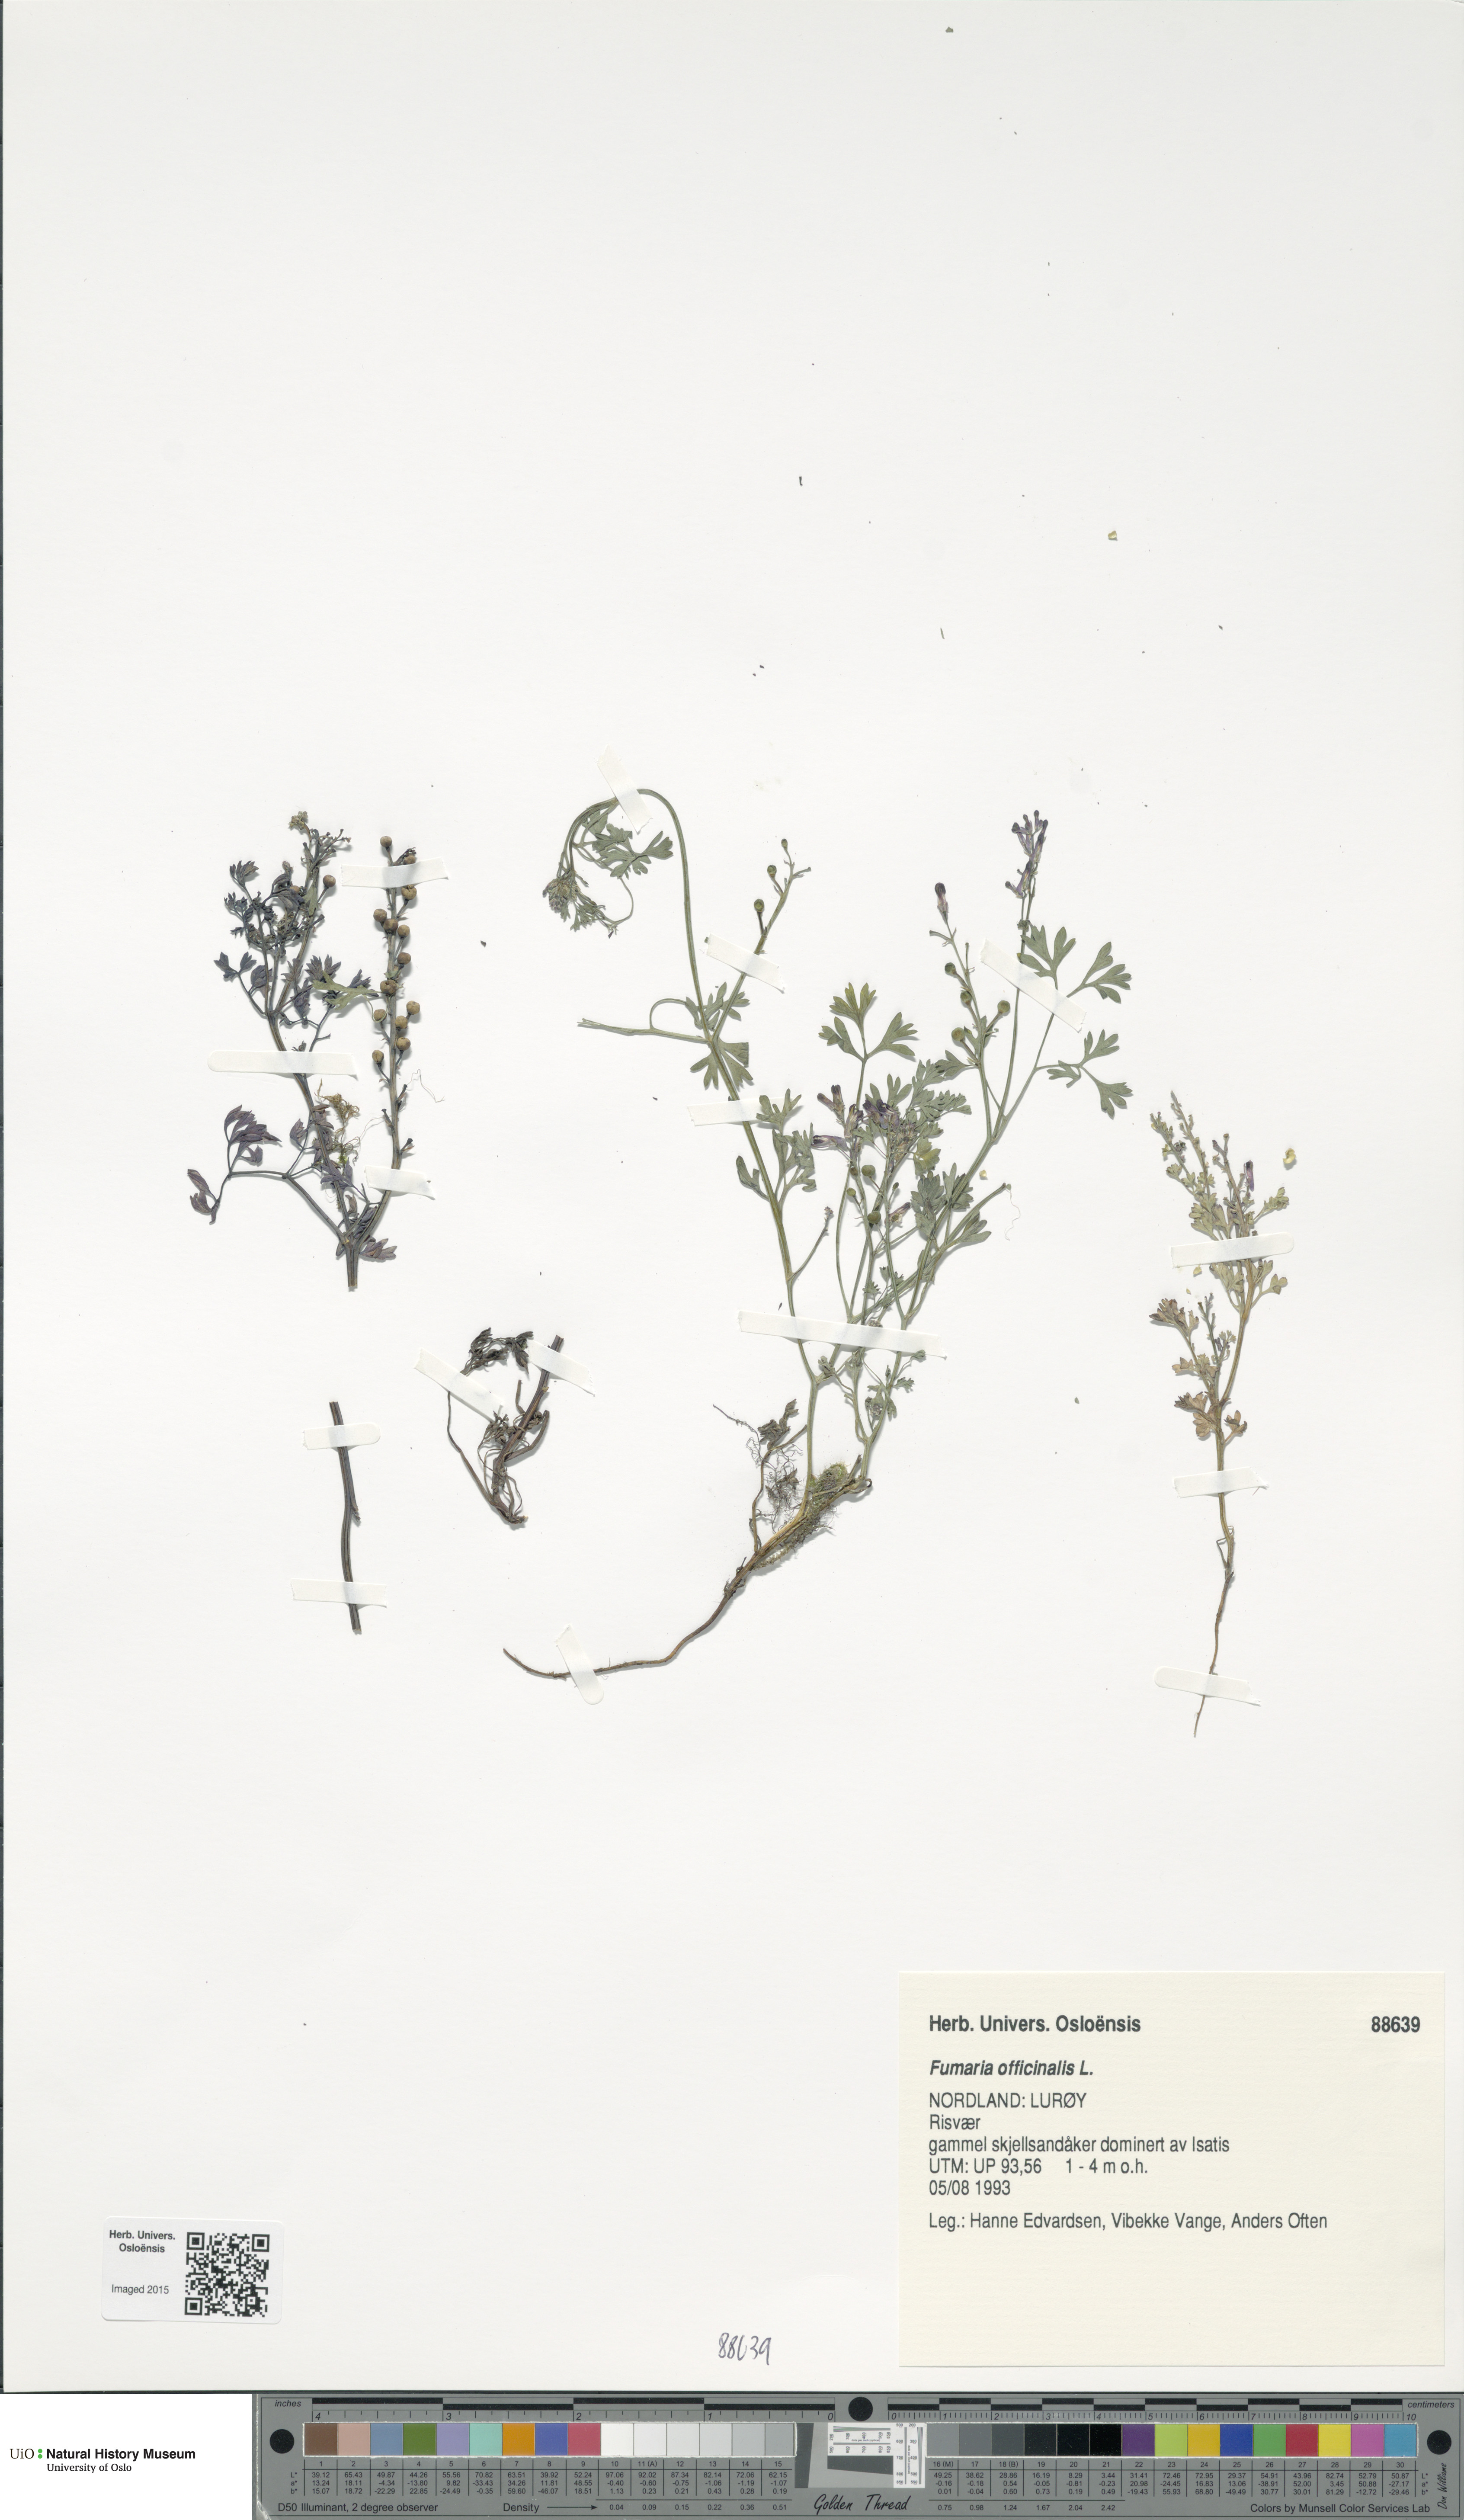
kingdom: Plantae
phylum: Tracheophyta
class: Magnoliopsida
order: Ranunculales
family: Papaveraceae
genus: Fumaria
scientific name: Fumaria officinalis
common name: Common fumitory
